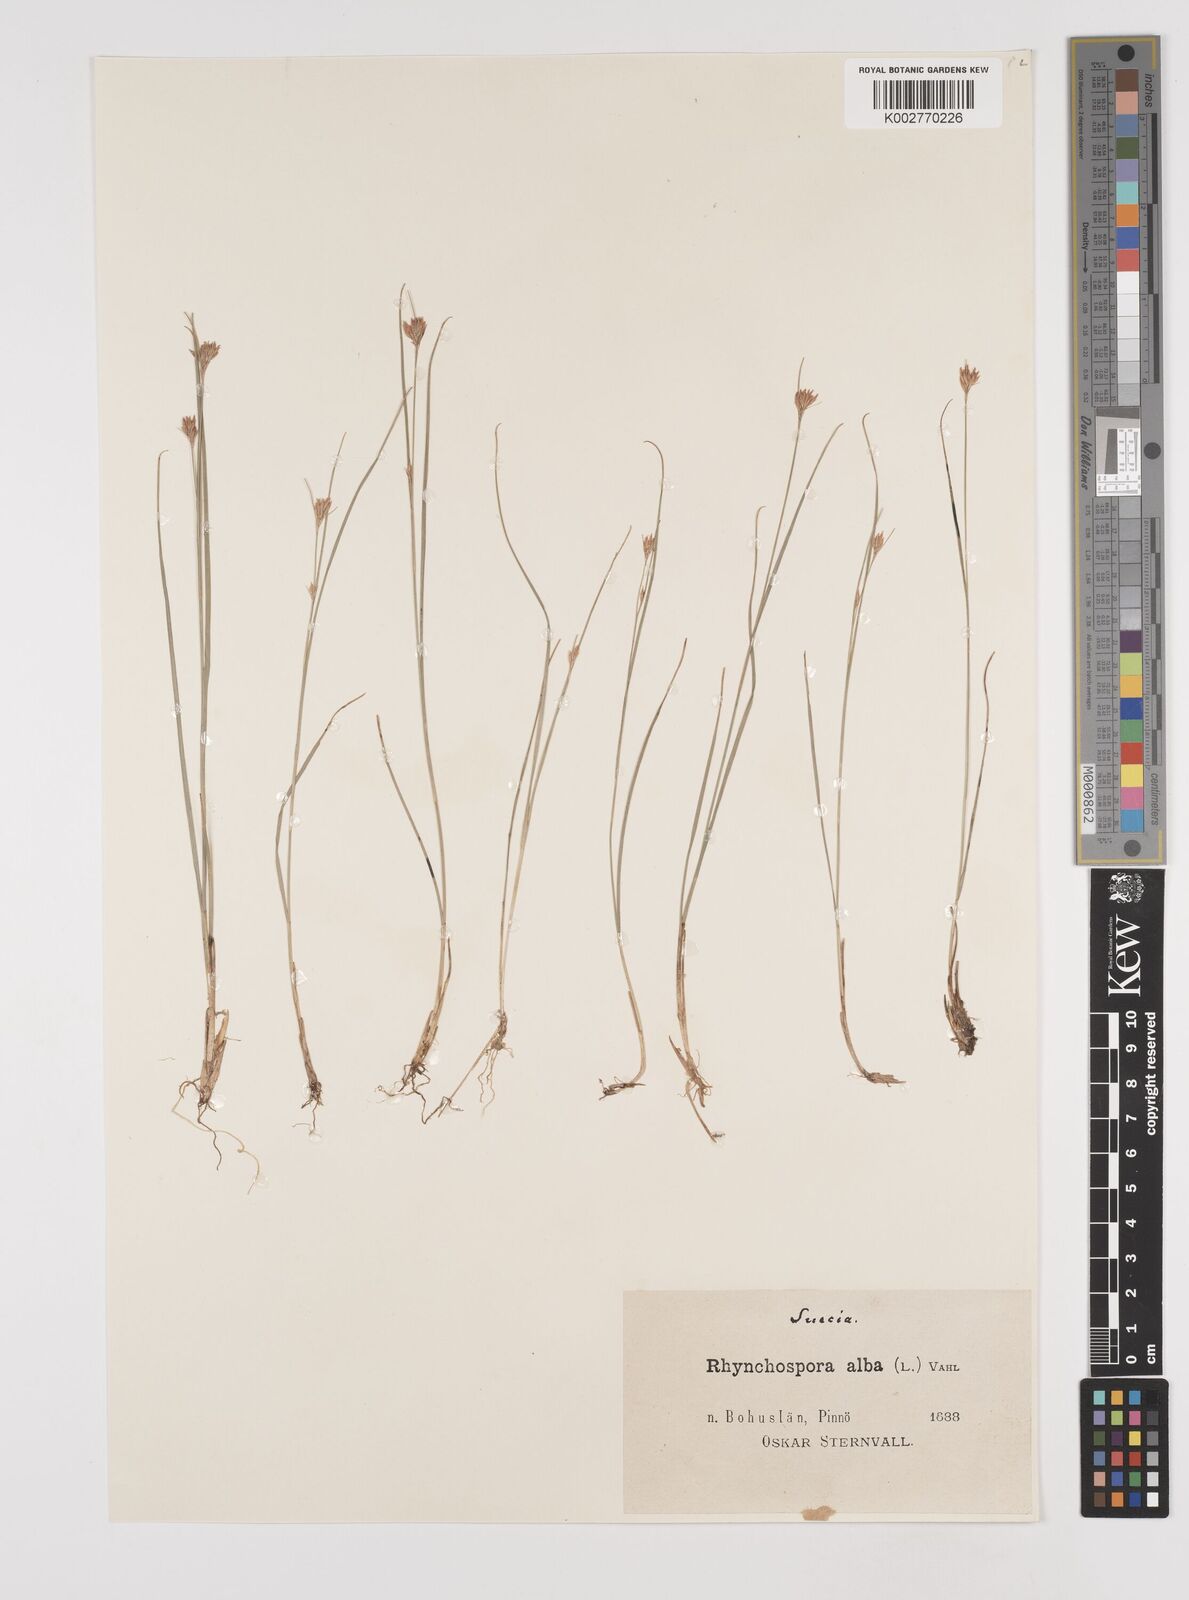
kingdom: Plantae
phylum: Tracheophyta
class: Liliopsida
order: Poales
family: Cyperaceae
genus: Rhynchospora
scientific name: Rhynchospora alba
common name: White beak-sedge
